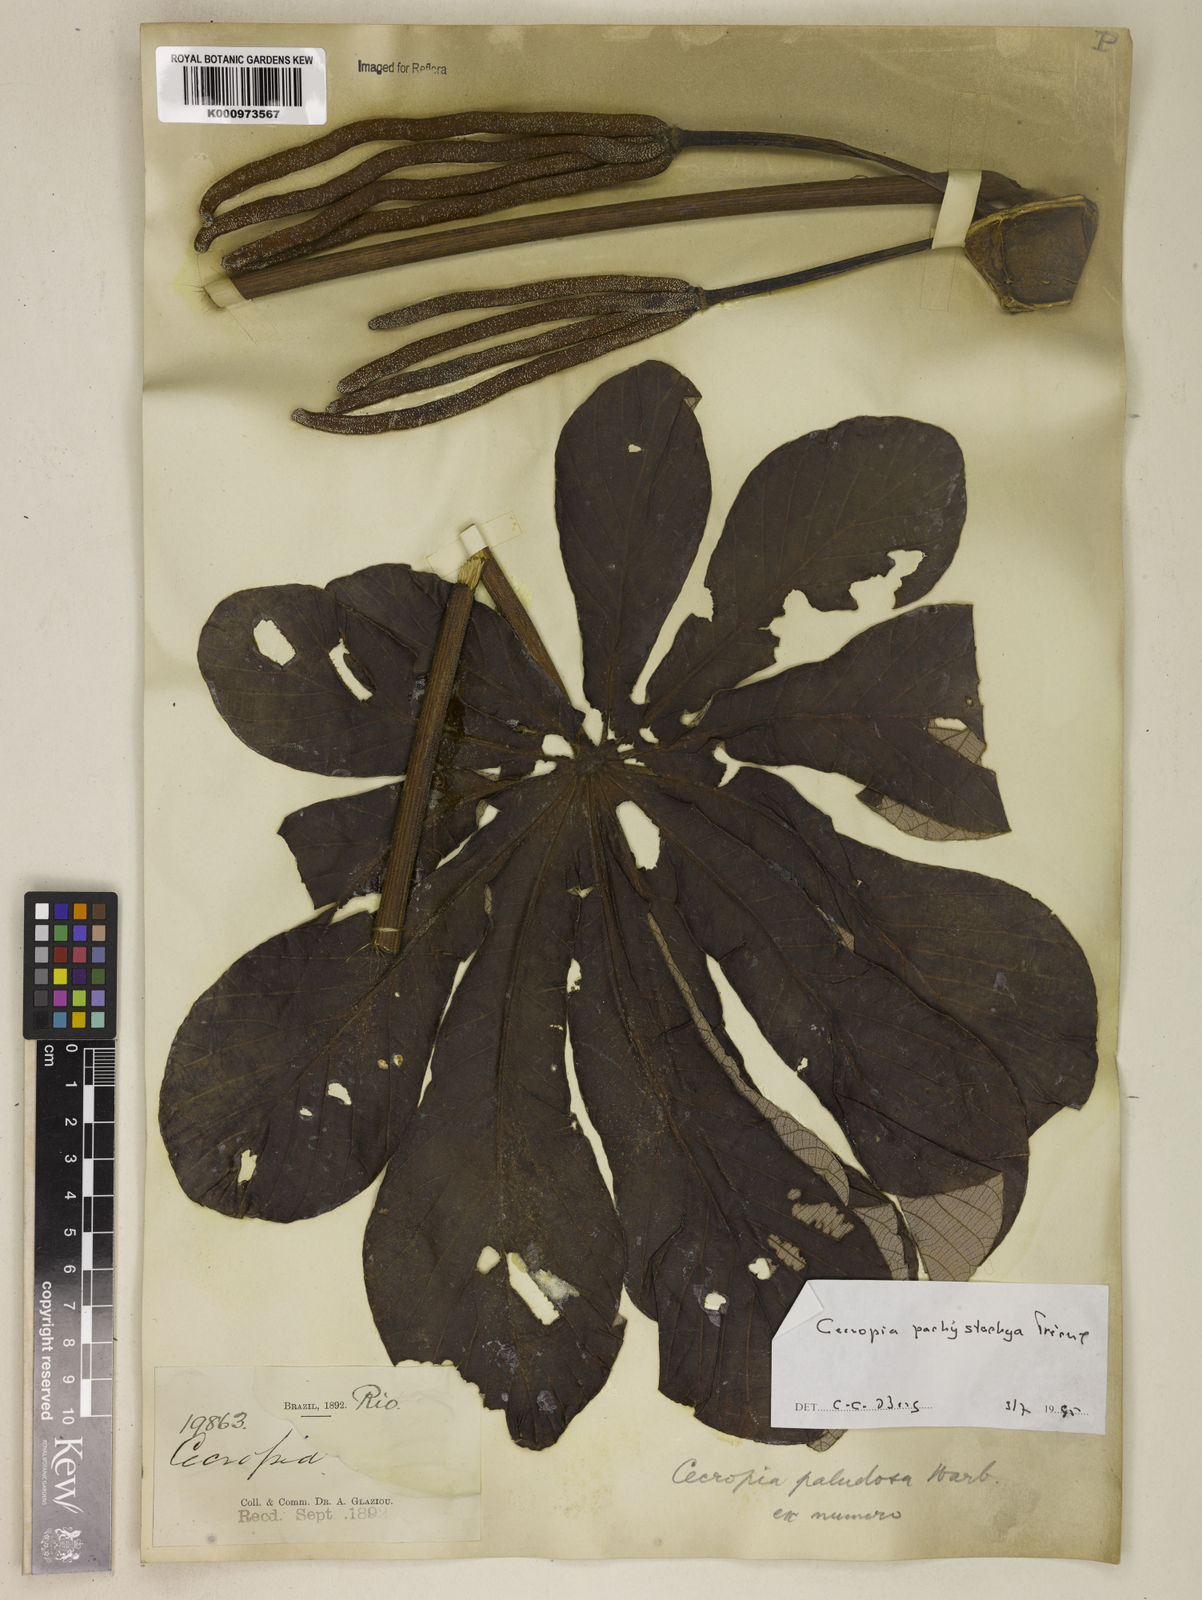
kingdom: Plantae
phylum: Tracheophyta
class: Magnoliopsida
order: Rosales
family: Urticaceae
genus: Cecropia
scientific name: Cecropia
